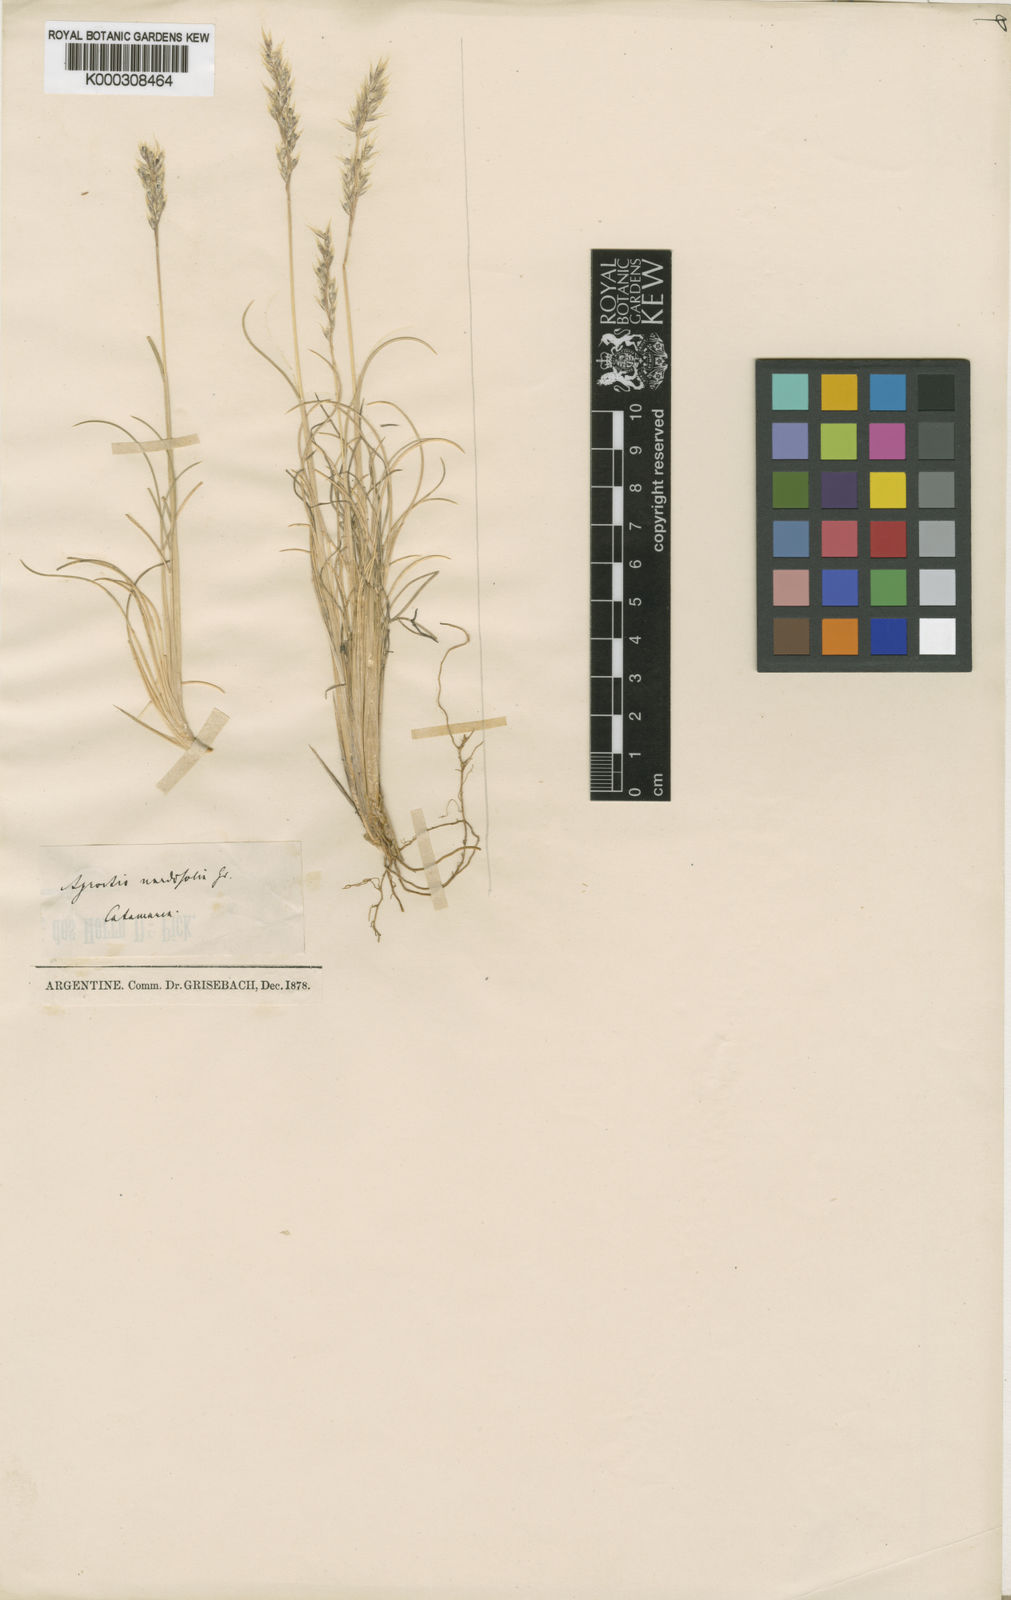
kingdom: Plantae
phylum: Tracheophyta
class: Liliopsida
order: Poales
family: Poaceae
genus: Cinnagrostis
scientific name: Cinnagrostis velutina
